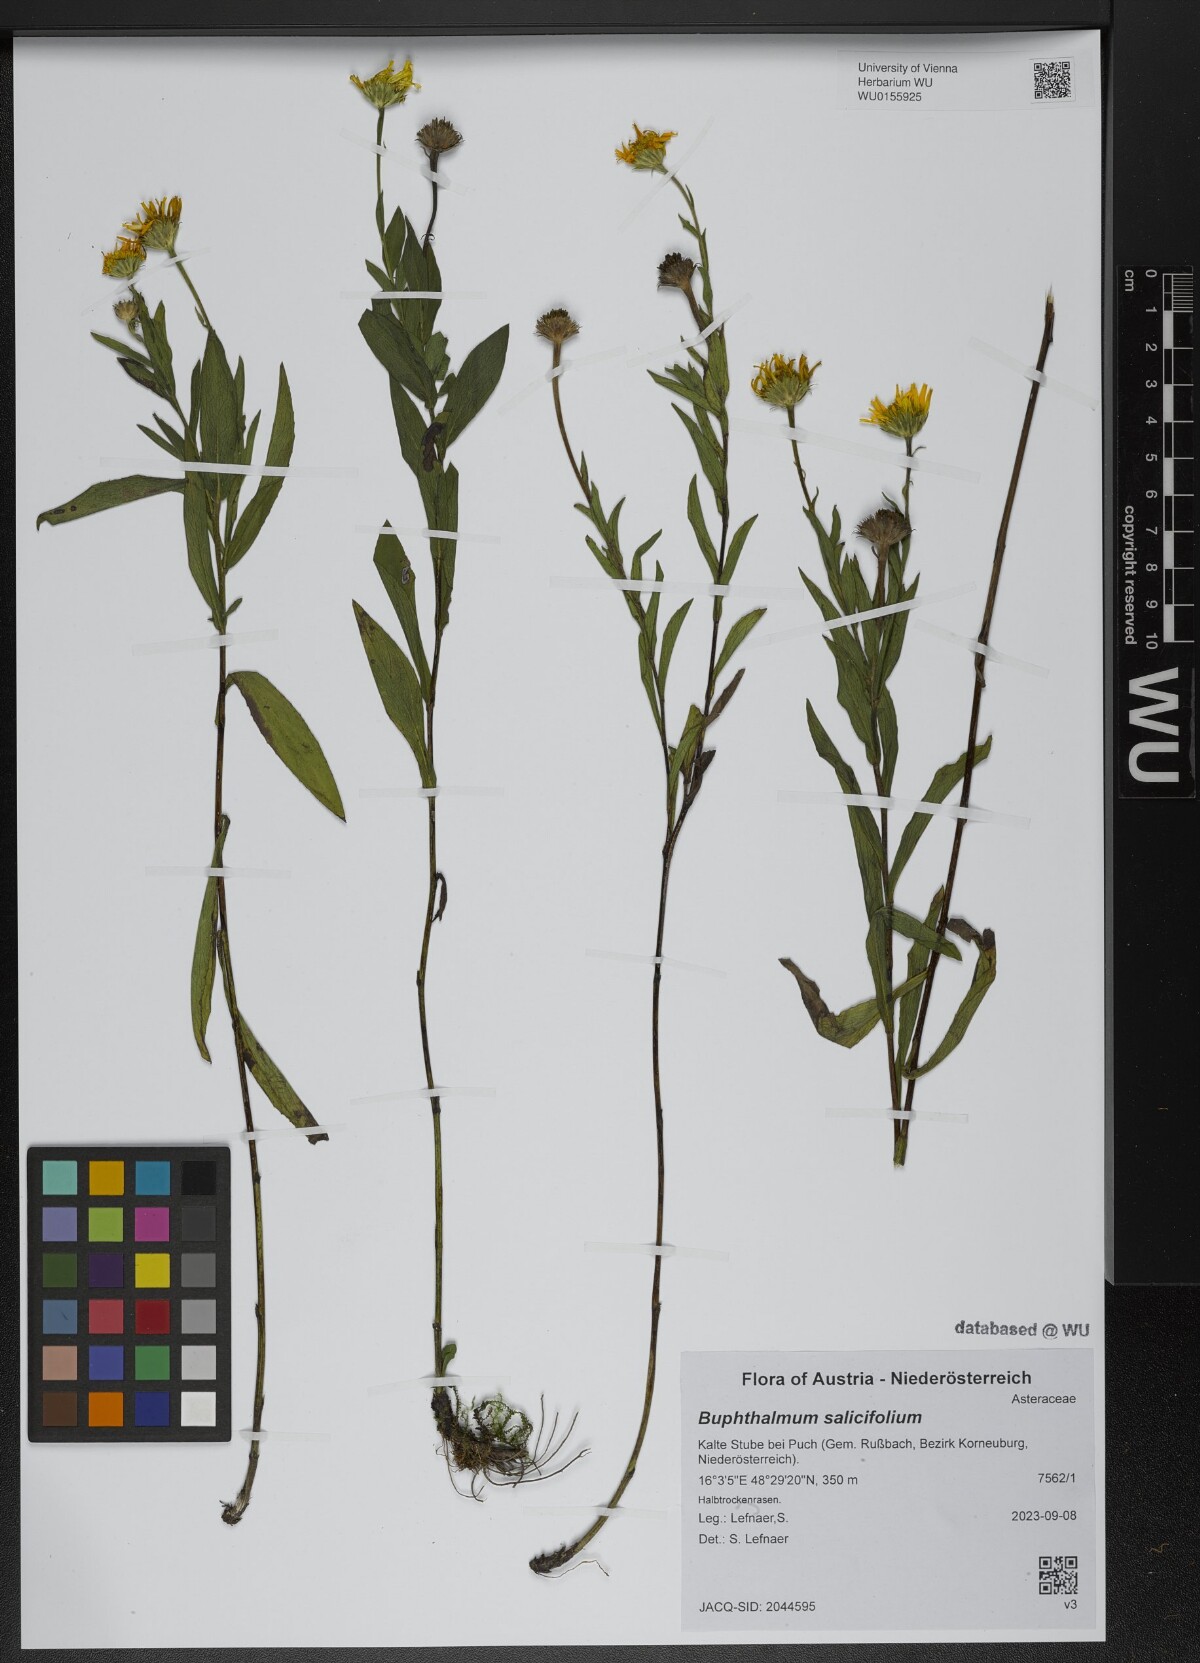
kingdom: Plantae
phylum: Tracheophyta
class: Magnoliopsida
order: Asterales
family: Asteraceae
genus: Buphthalmum
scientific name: Buphthalmum salicifolium
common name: Willow-leaved yellow-oxeye
